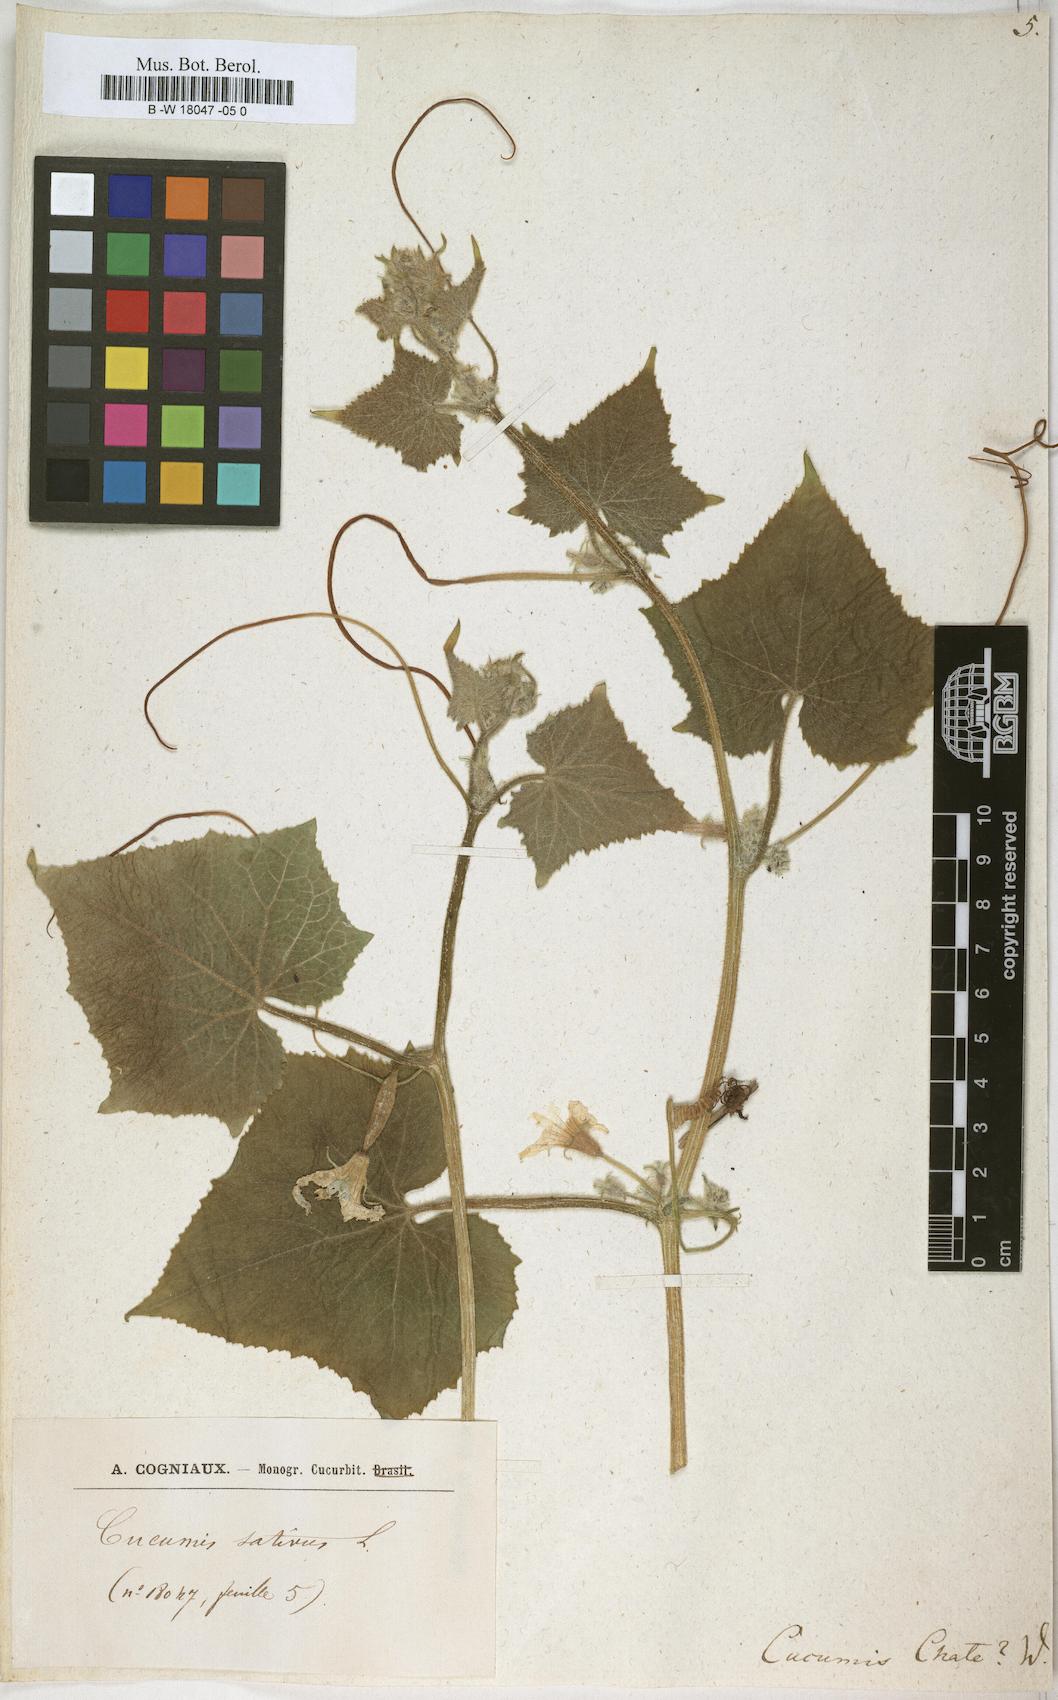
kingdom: Plantae
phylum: Tracheophyta
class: Magnoliopsida
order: Cucurbitales
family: Cucurbitaceae
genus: Cucumis
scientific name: Cucumis melo
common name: Melon
